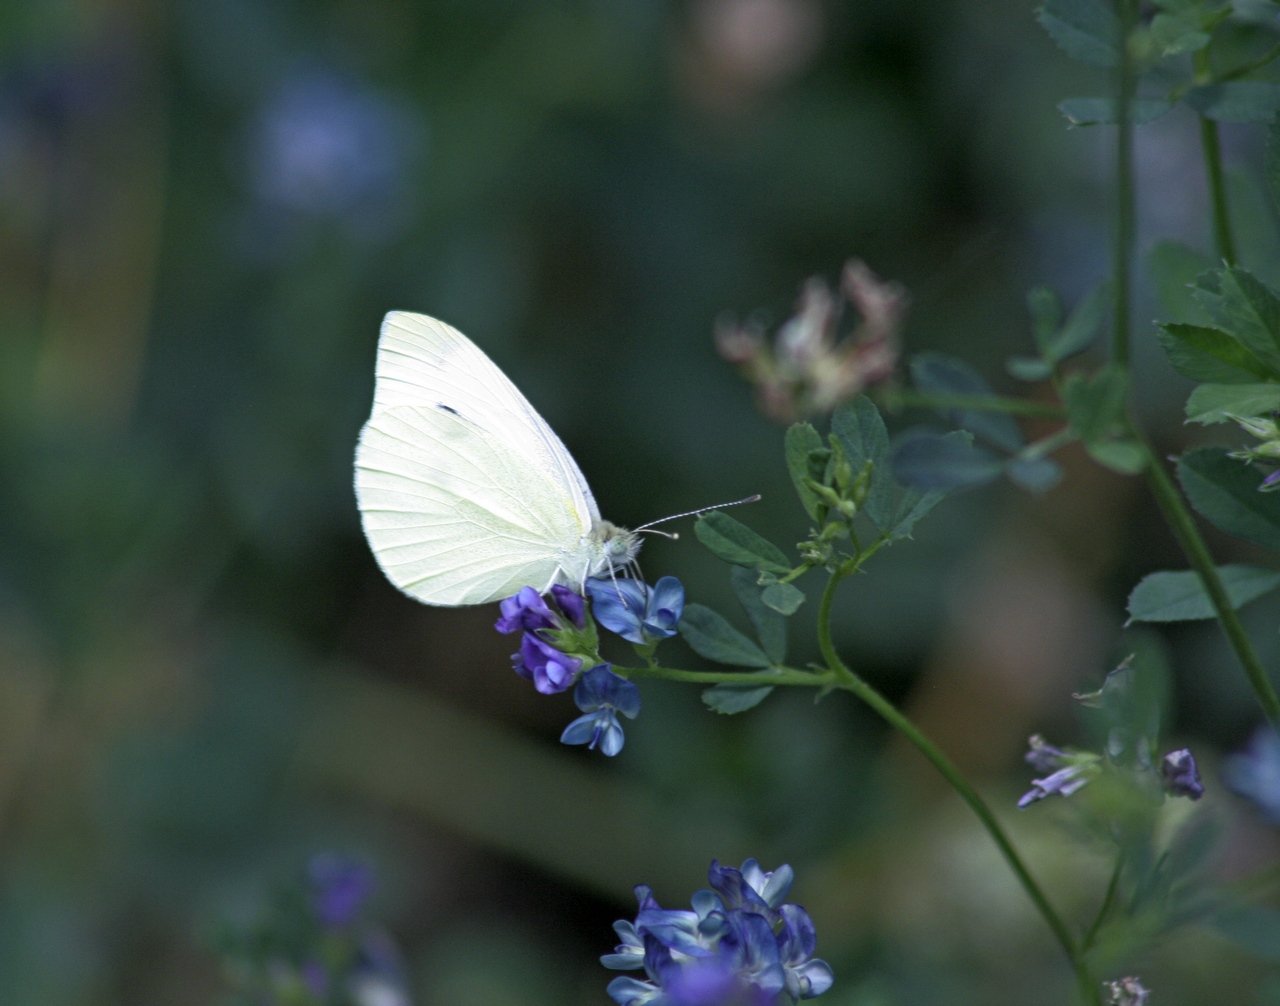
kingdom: Animalia
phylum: Arthropoda
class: Insecta
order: Lepidoptera
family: Pieridae
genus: Pieris
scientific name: Pieris oleracea
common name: Mustard White
